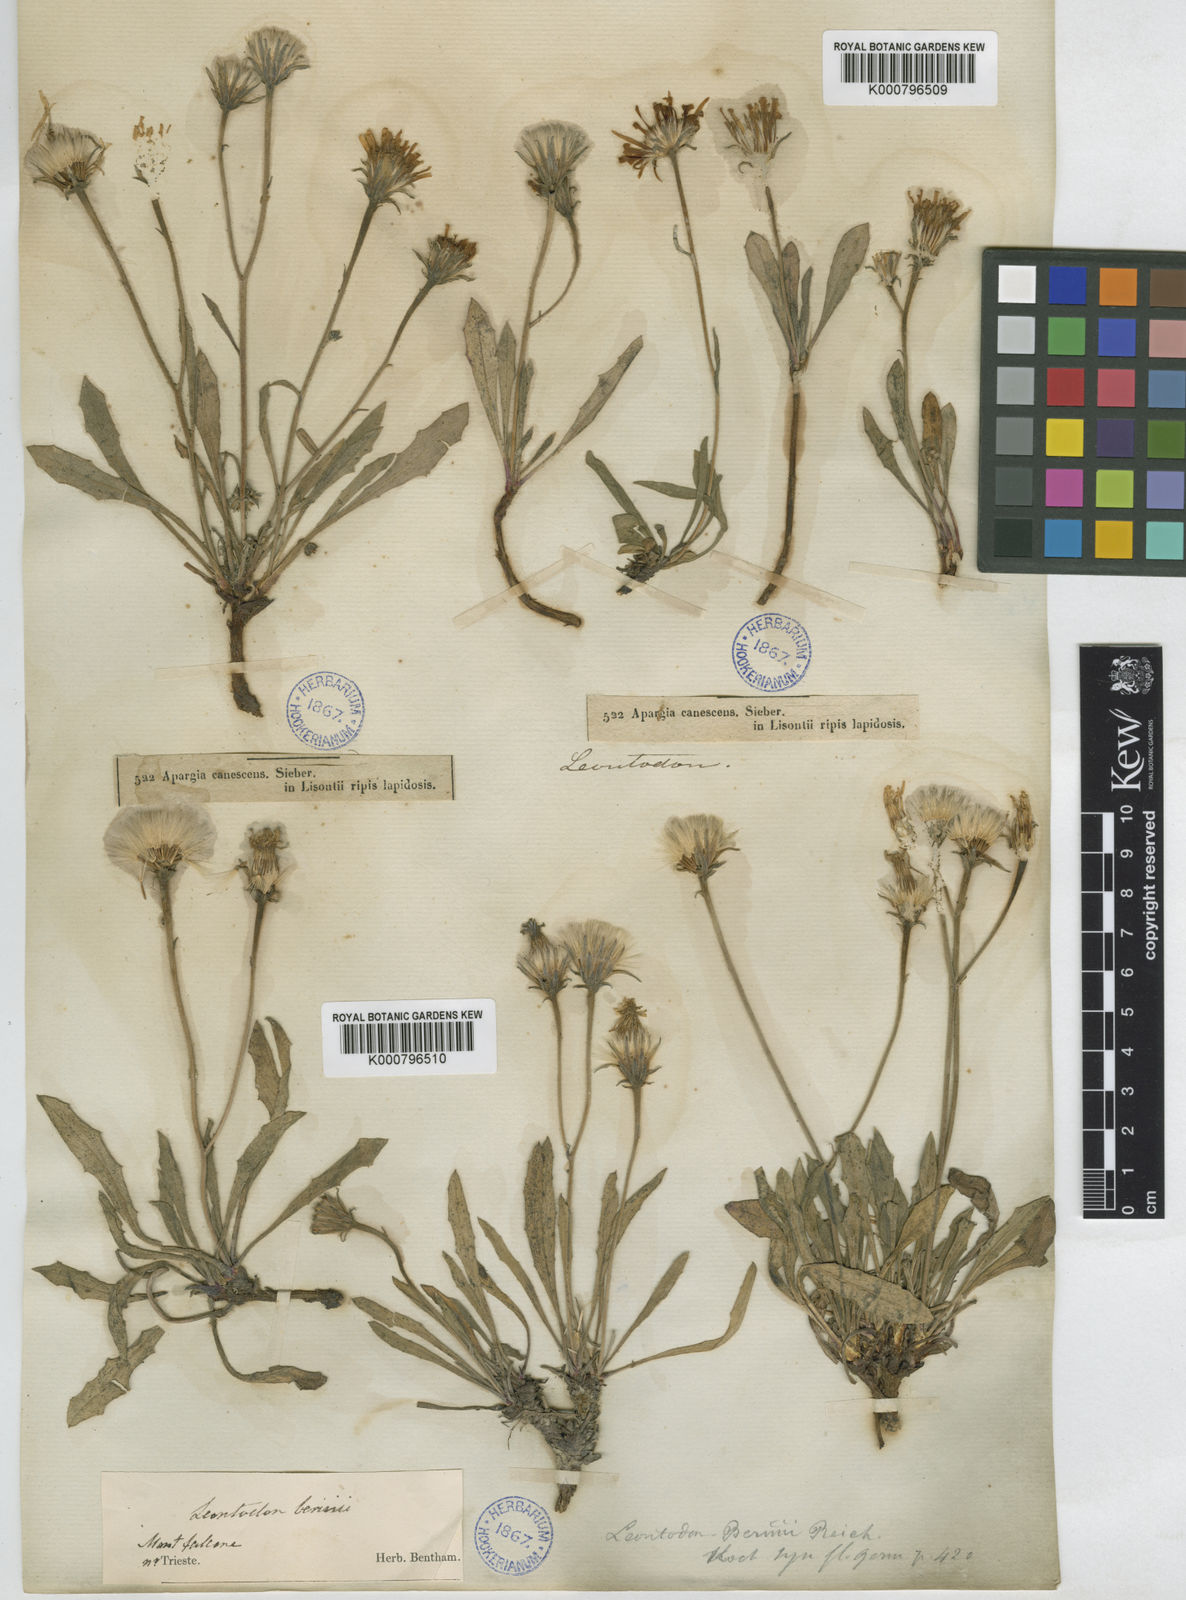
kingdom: Plantae
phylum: Tracheophyta
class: Magnoliopsida
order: Asterales
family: Asteraceae
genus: Leontodon
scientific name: Leontodon berinii
